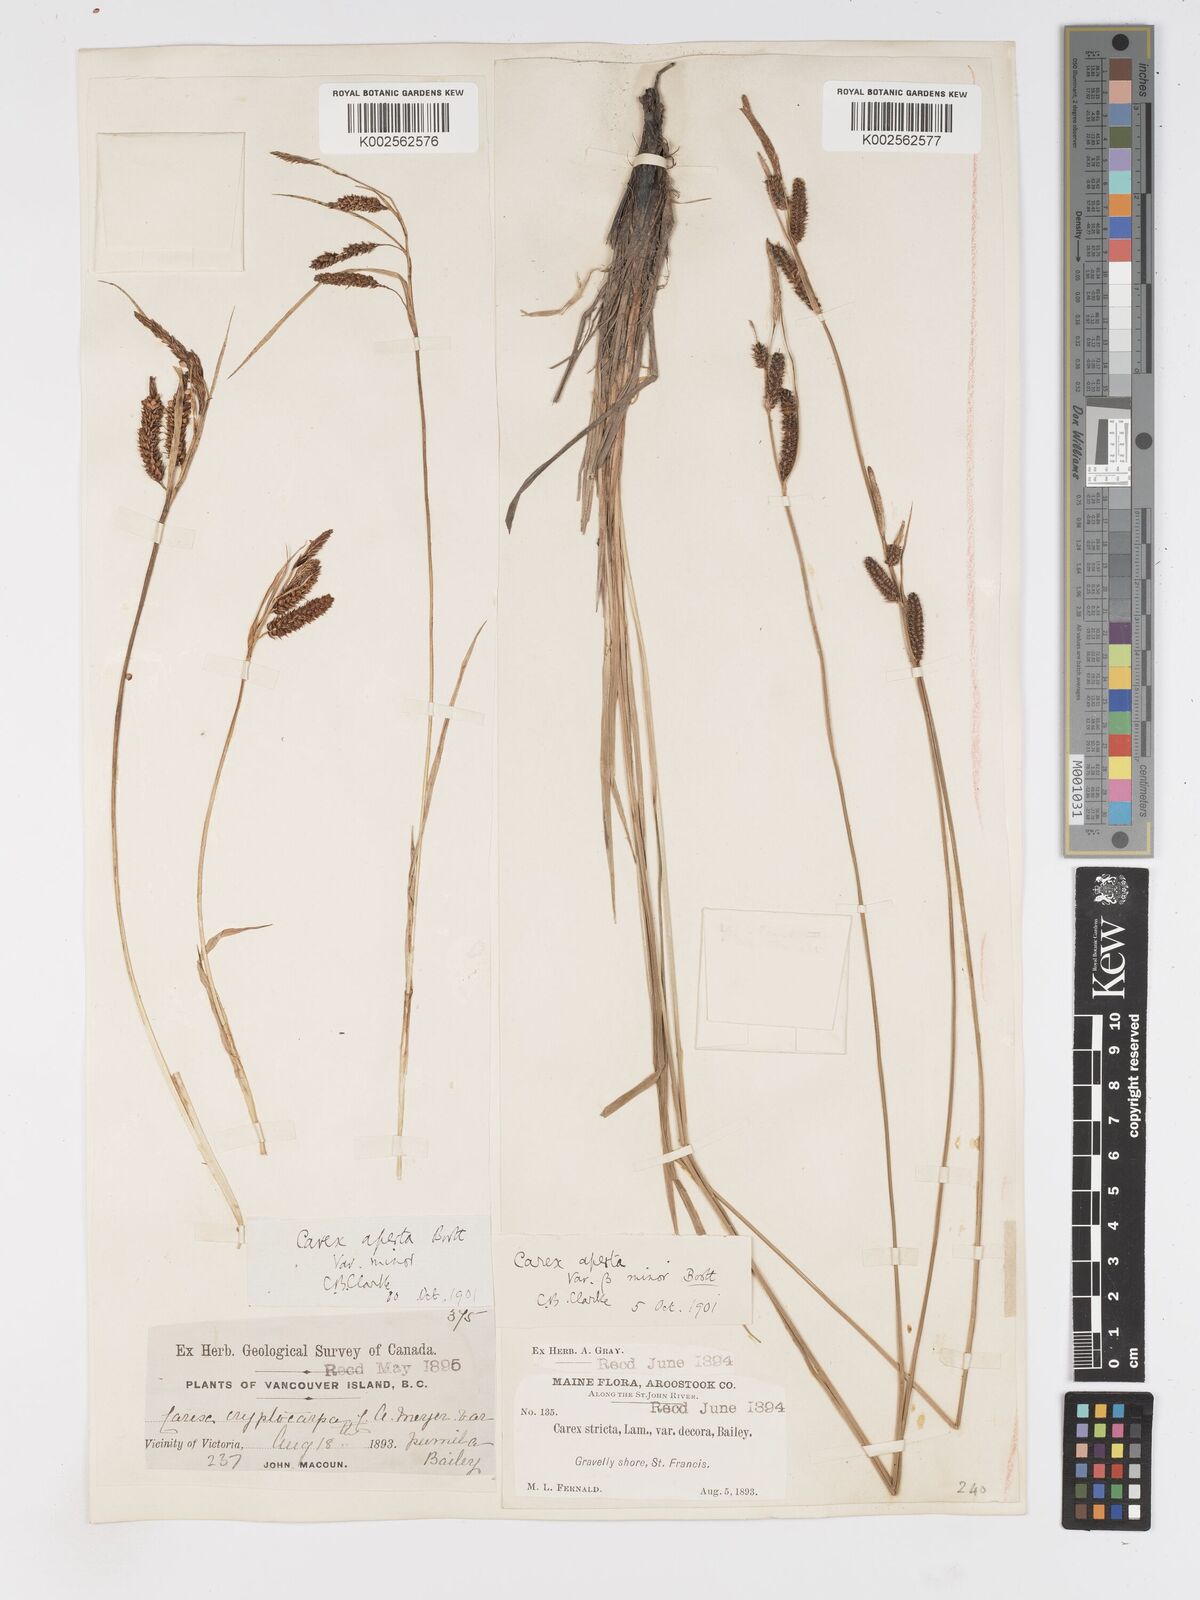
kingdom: Plantae
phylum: Tracheophyta
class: Liliopsida
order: Poales
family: Cyperaceae
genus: Carex
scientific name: Carex haydenii
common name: Hayden's sedge
